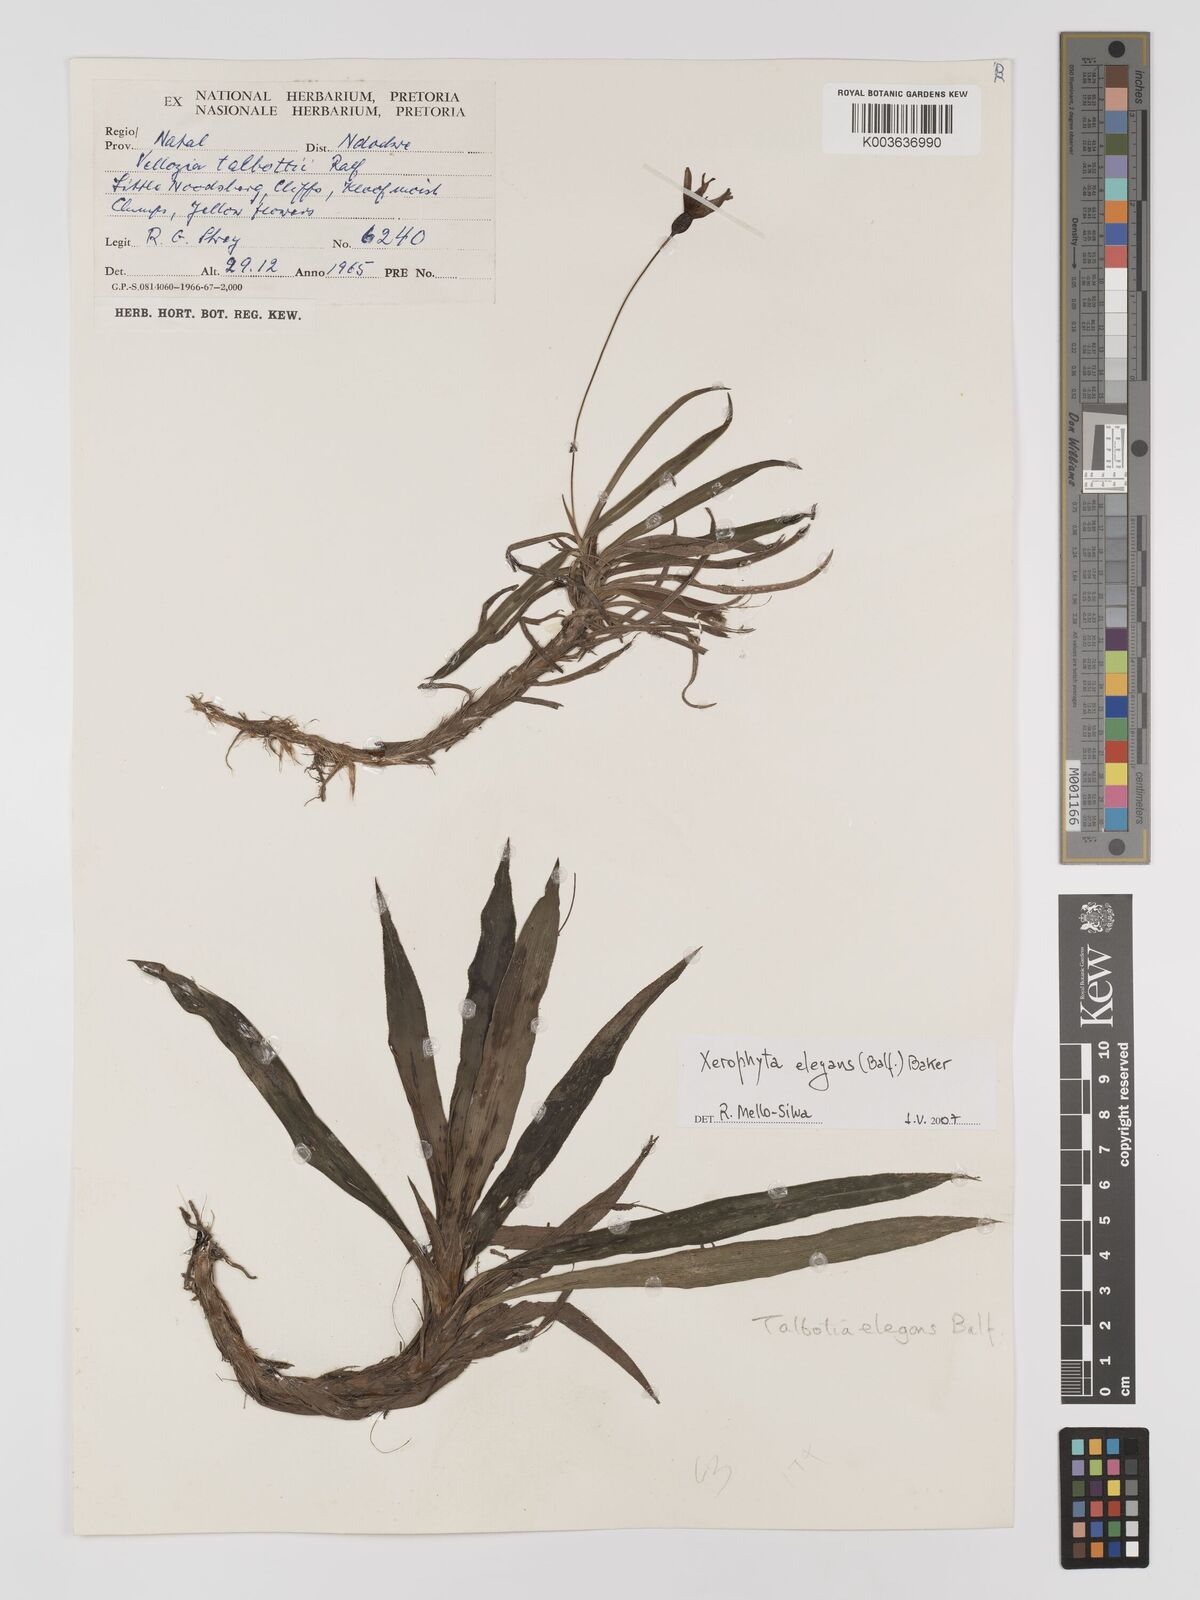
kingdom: Plantae
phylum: Tracheophyta
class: Liliopsida
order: Pandanales
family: Velloziaceae
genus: Xerophyta
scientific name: Xerophyta elegans
